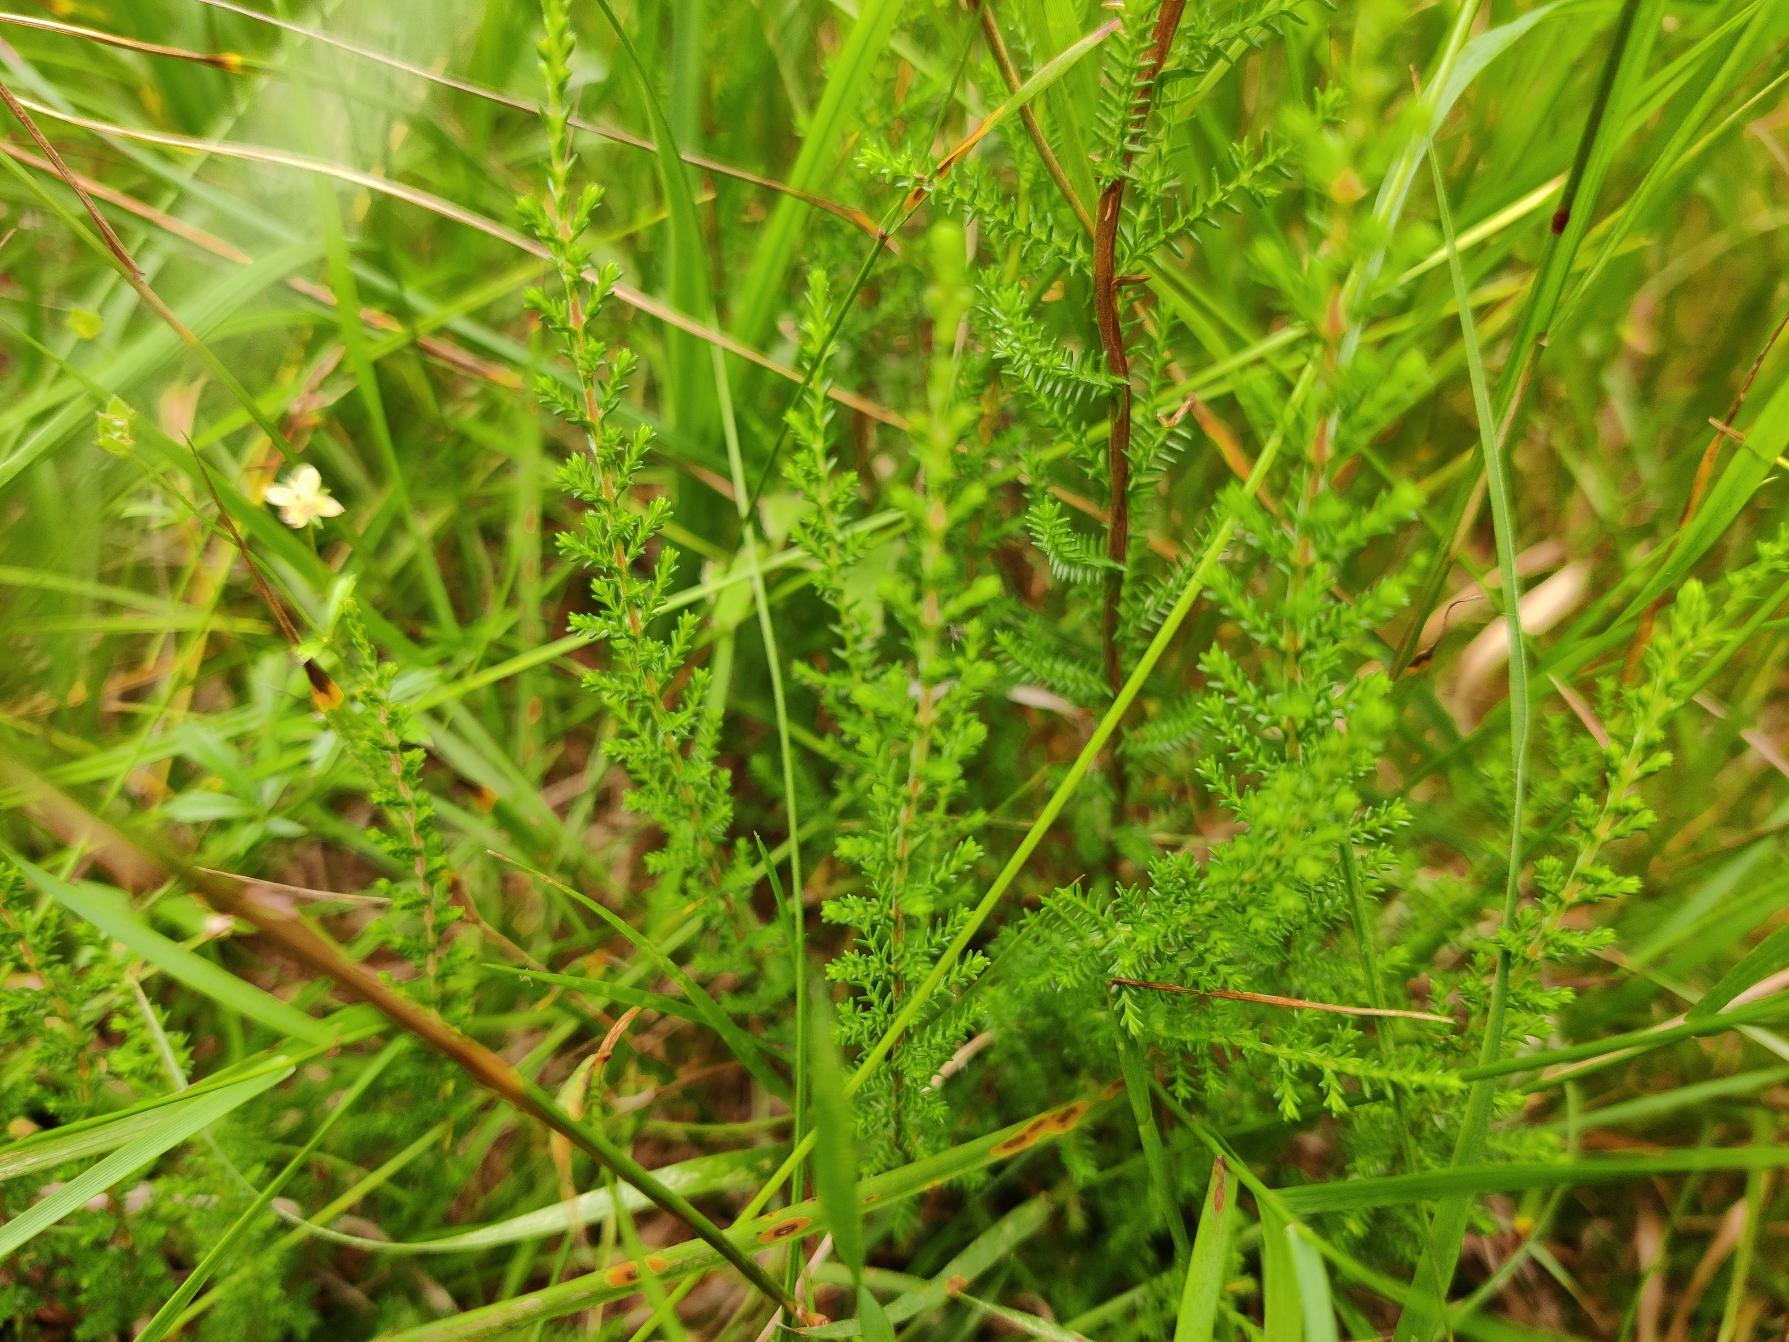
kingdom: Plantae
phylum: Tracheophyta
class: Magnoliopsida
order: Ericales
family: Ericaceae
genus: Calluna
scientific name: Calluna vulgaris
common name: Hedelyng
